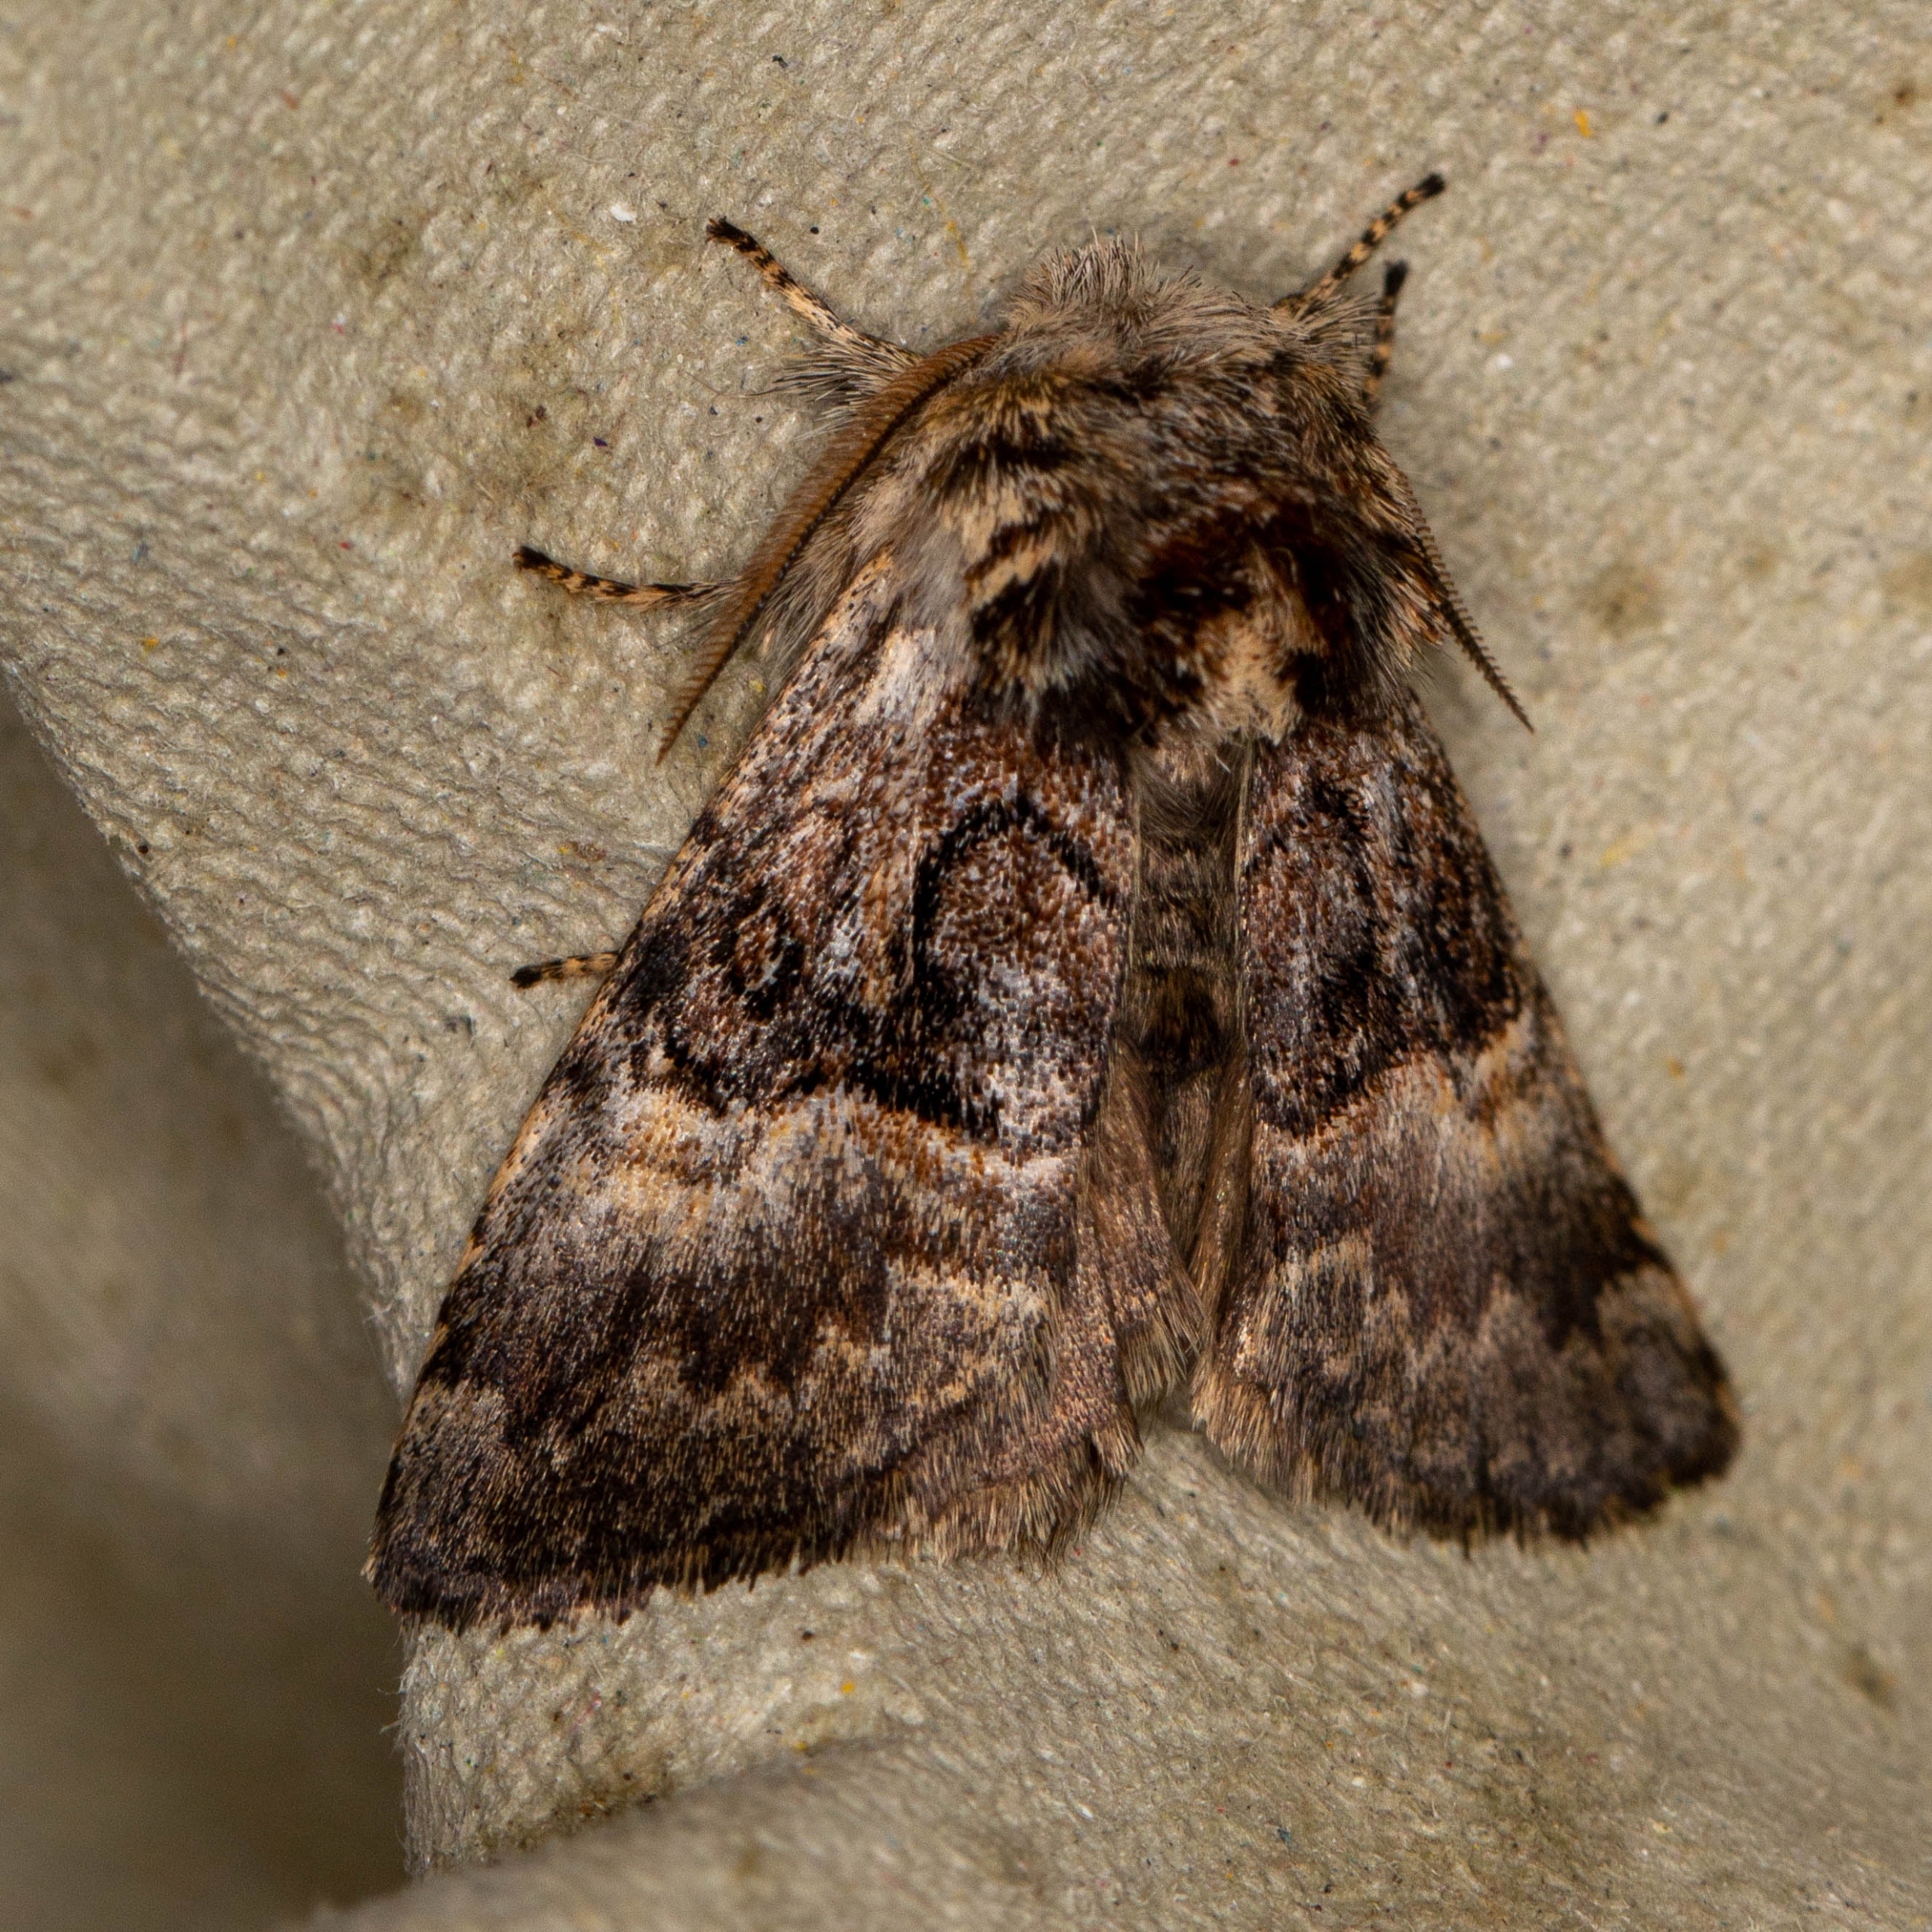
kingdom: Animalia
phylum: Arthropoda
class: Insecta
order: Lepidoptera
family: Noctuidae
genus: Colocasia
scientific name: Colocasia coryli
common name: Penselugle
